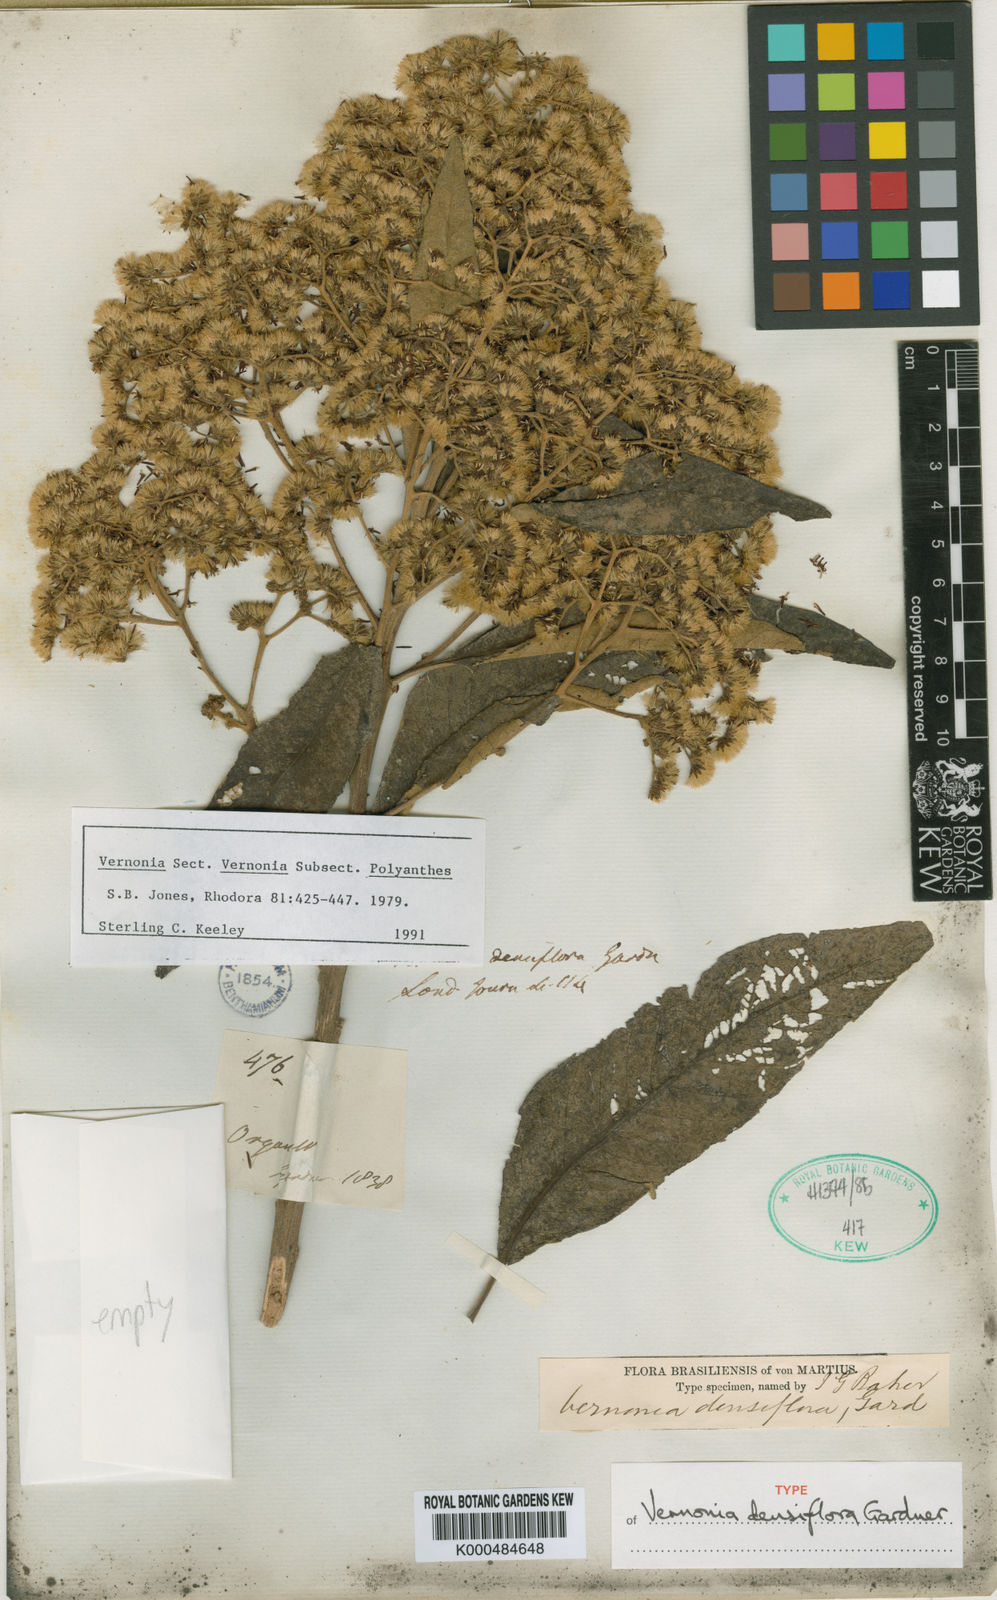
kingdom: Plantae
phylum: Tracheophyta
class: Magnoliopsida
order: Asterales
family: Asteraceae
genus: Vernonanthura
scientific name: Vernonanthura densiflora
